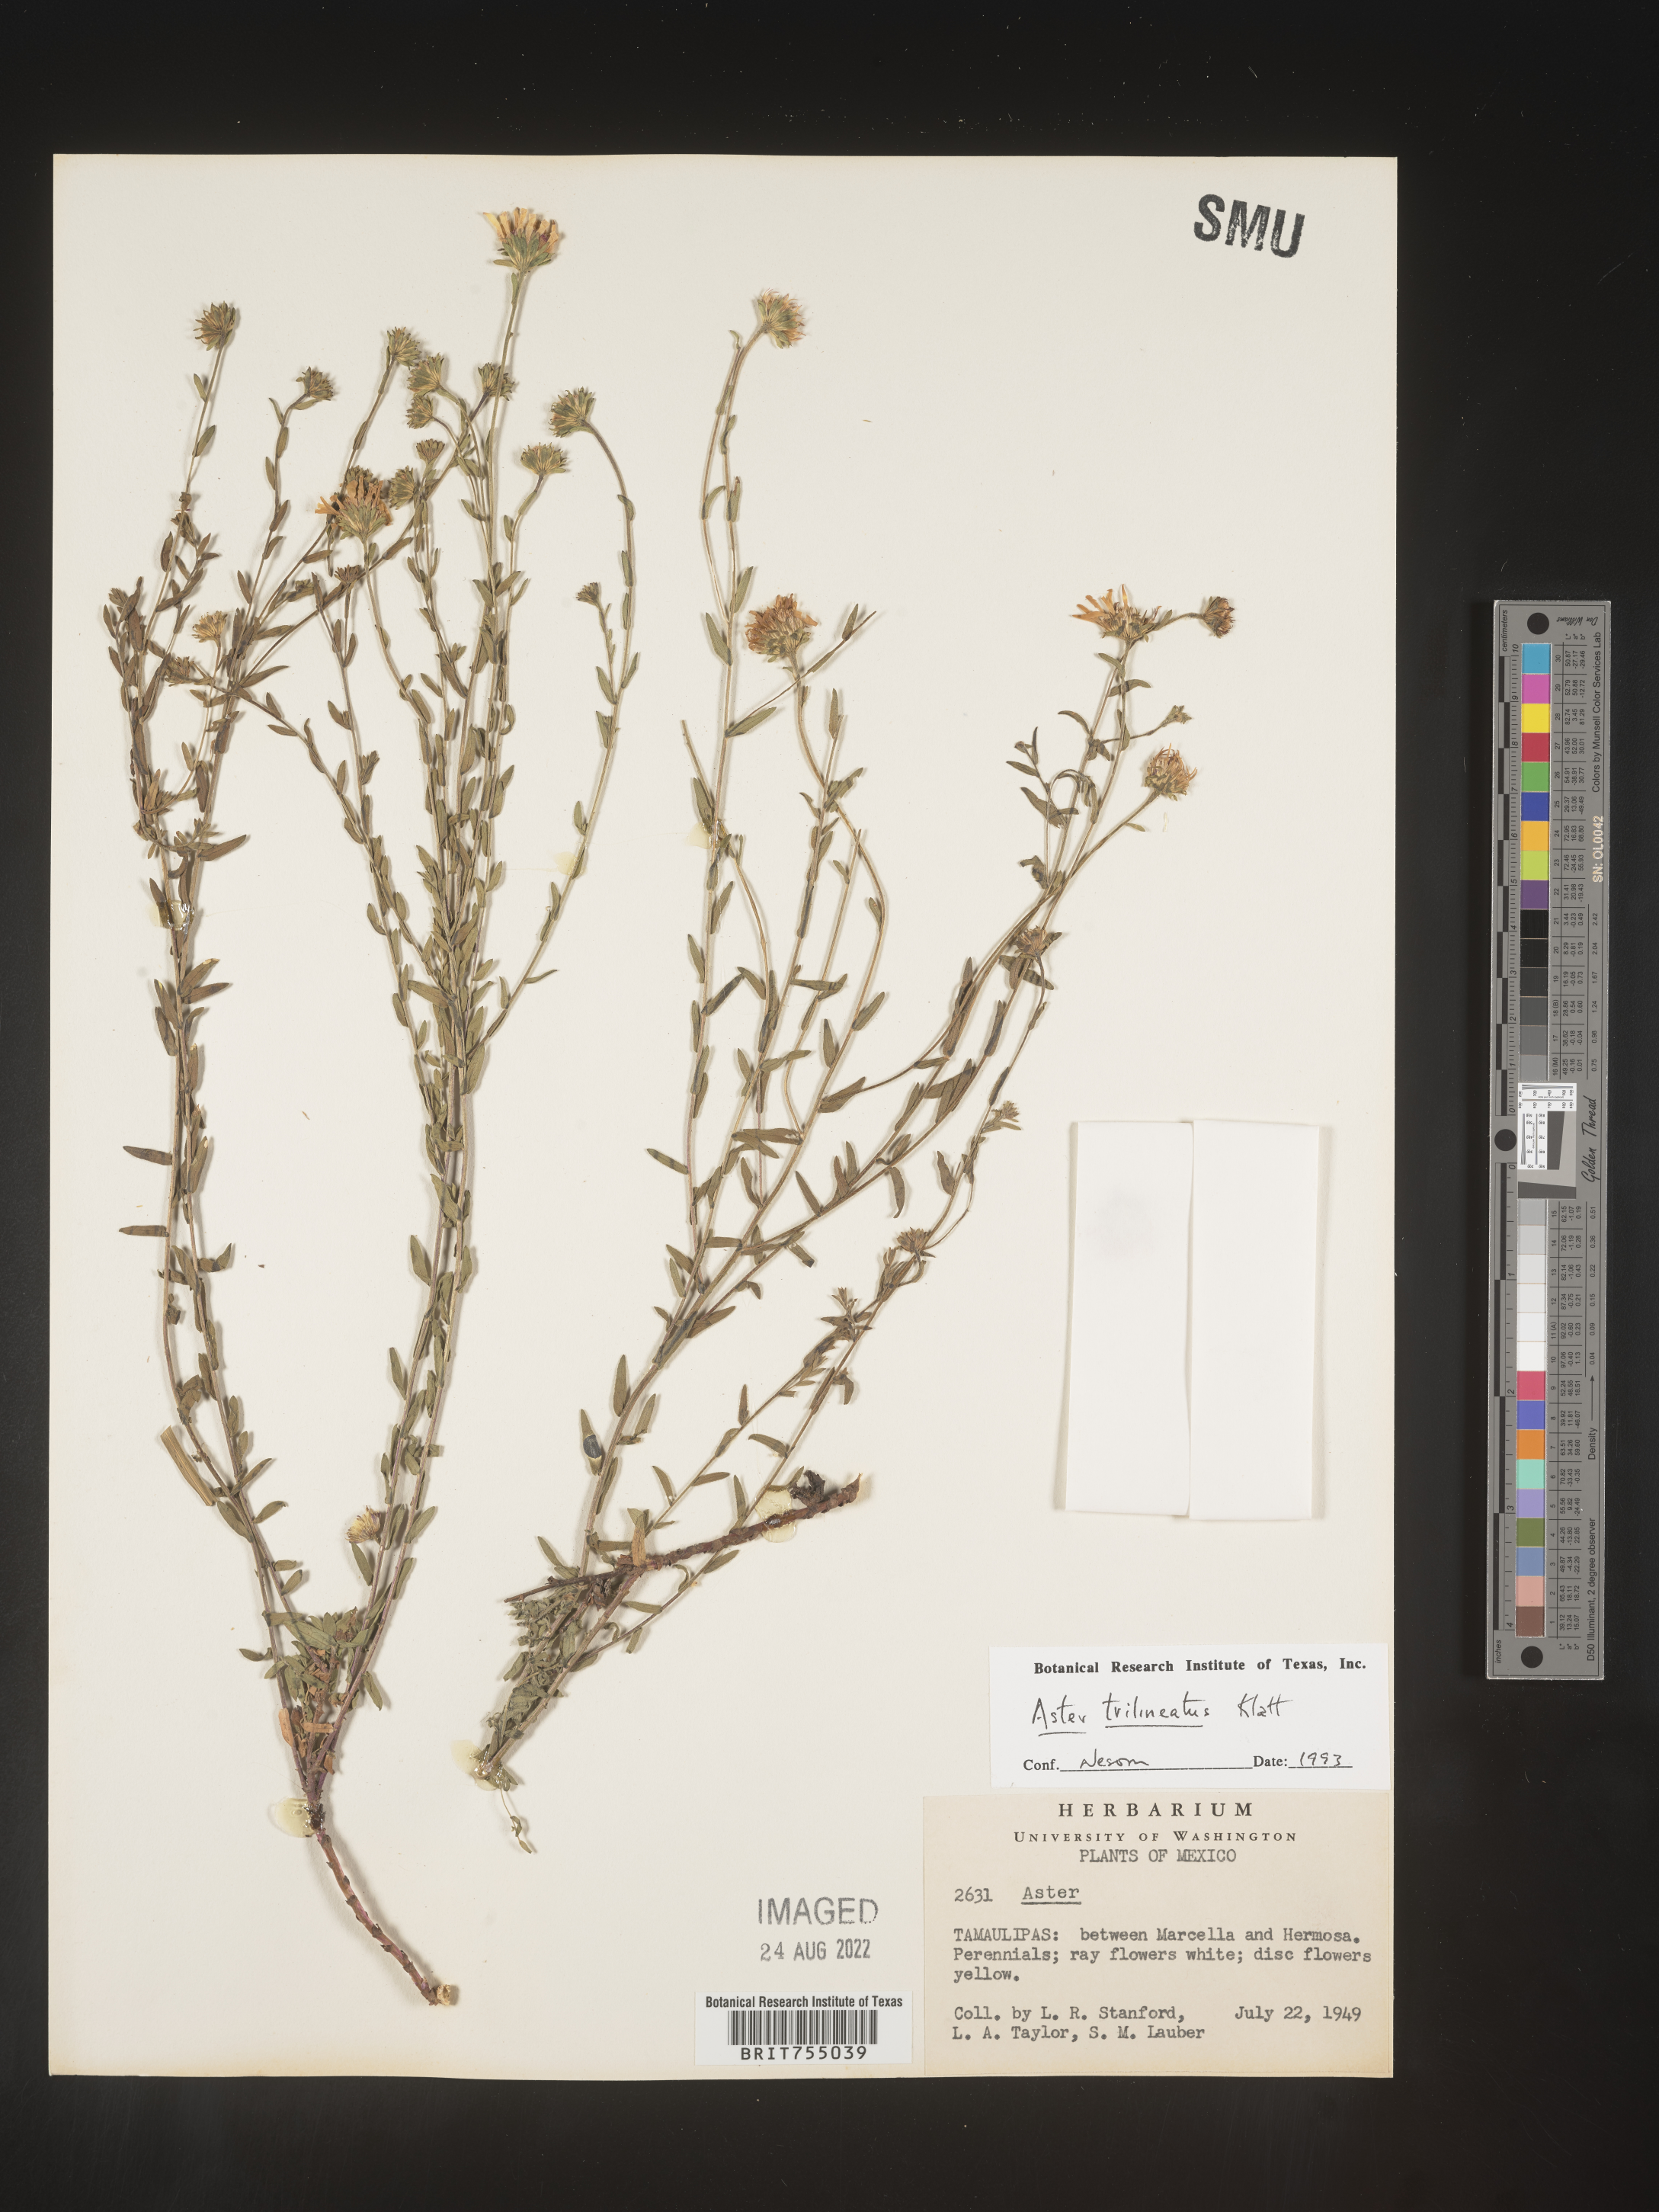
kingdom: Plantae
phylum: Tracheophyta
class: Magnoliopsida
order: Asterales
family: Asteraceae
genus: Symphyotrichum
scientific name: Symphyotrichum trilineatum
